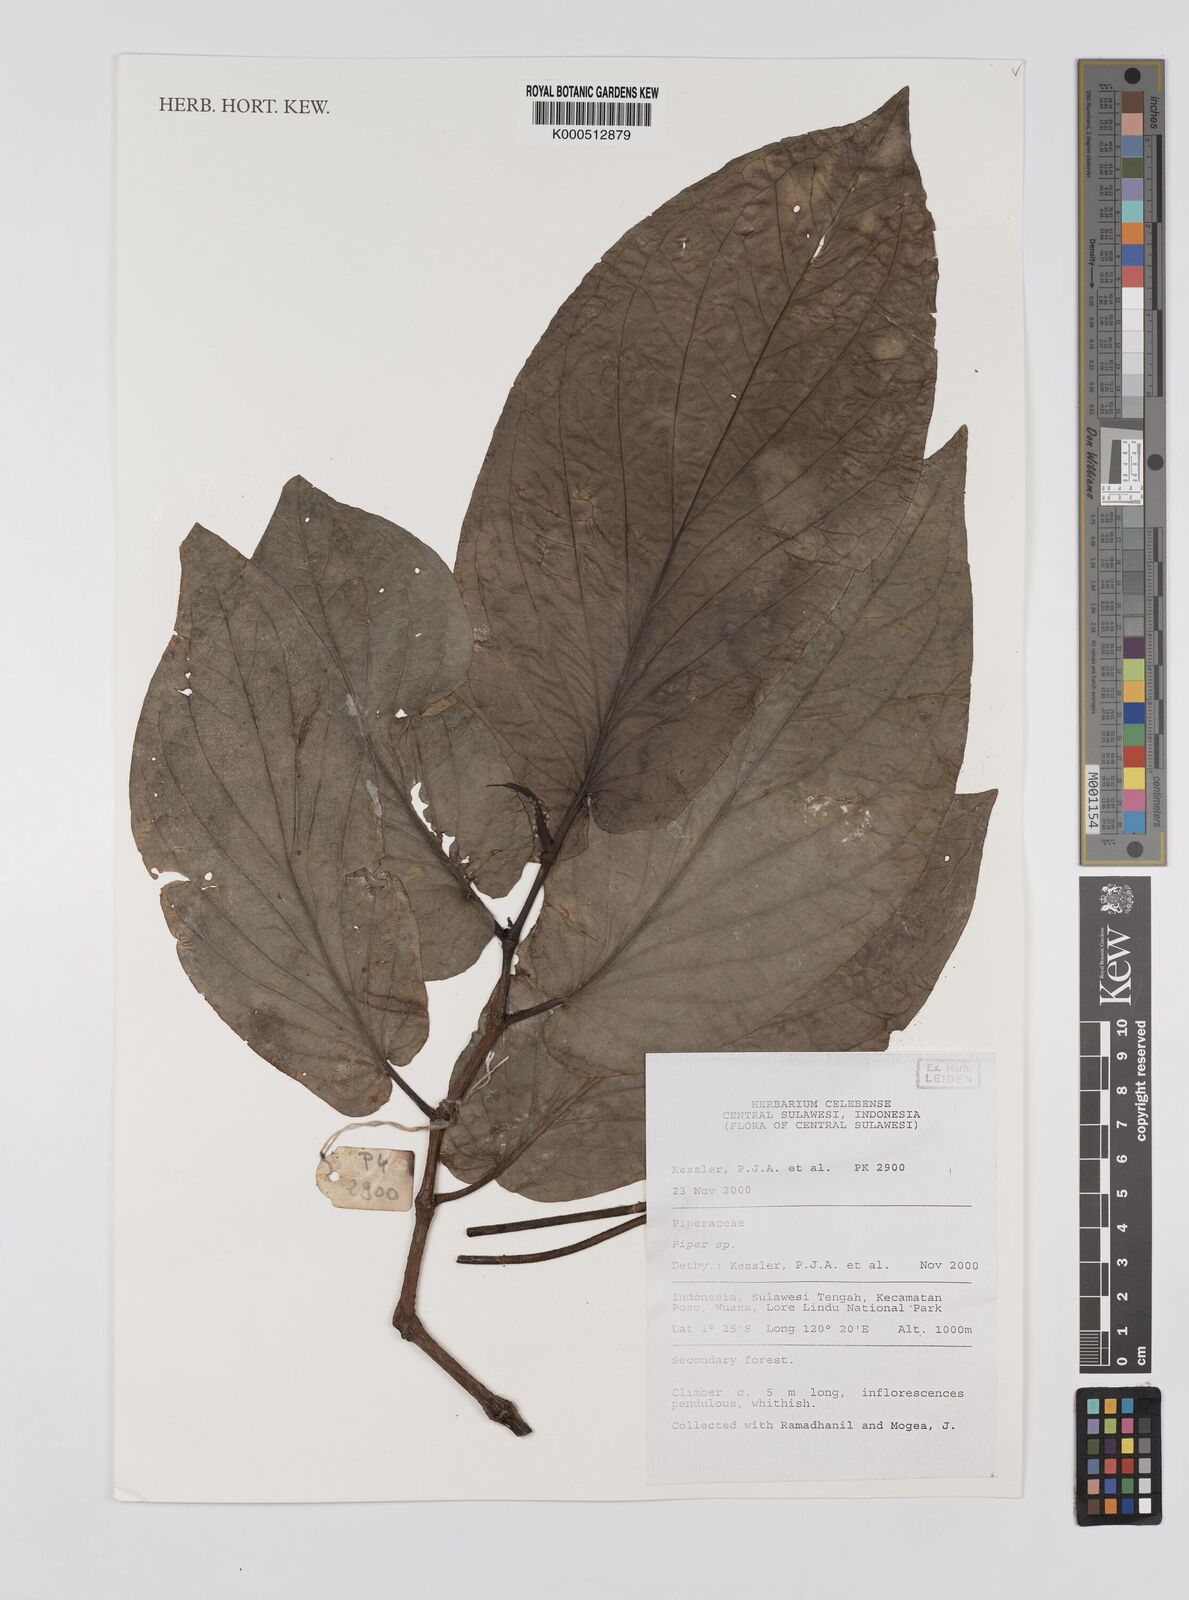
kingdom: Plantae
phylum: Tracheophyta
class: Magnoliopsida
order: Piperales
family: Piperaceae
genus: Piper
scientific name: Piper
